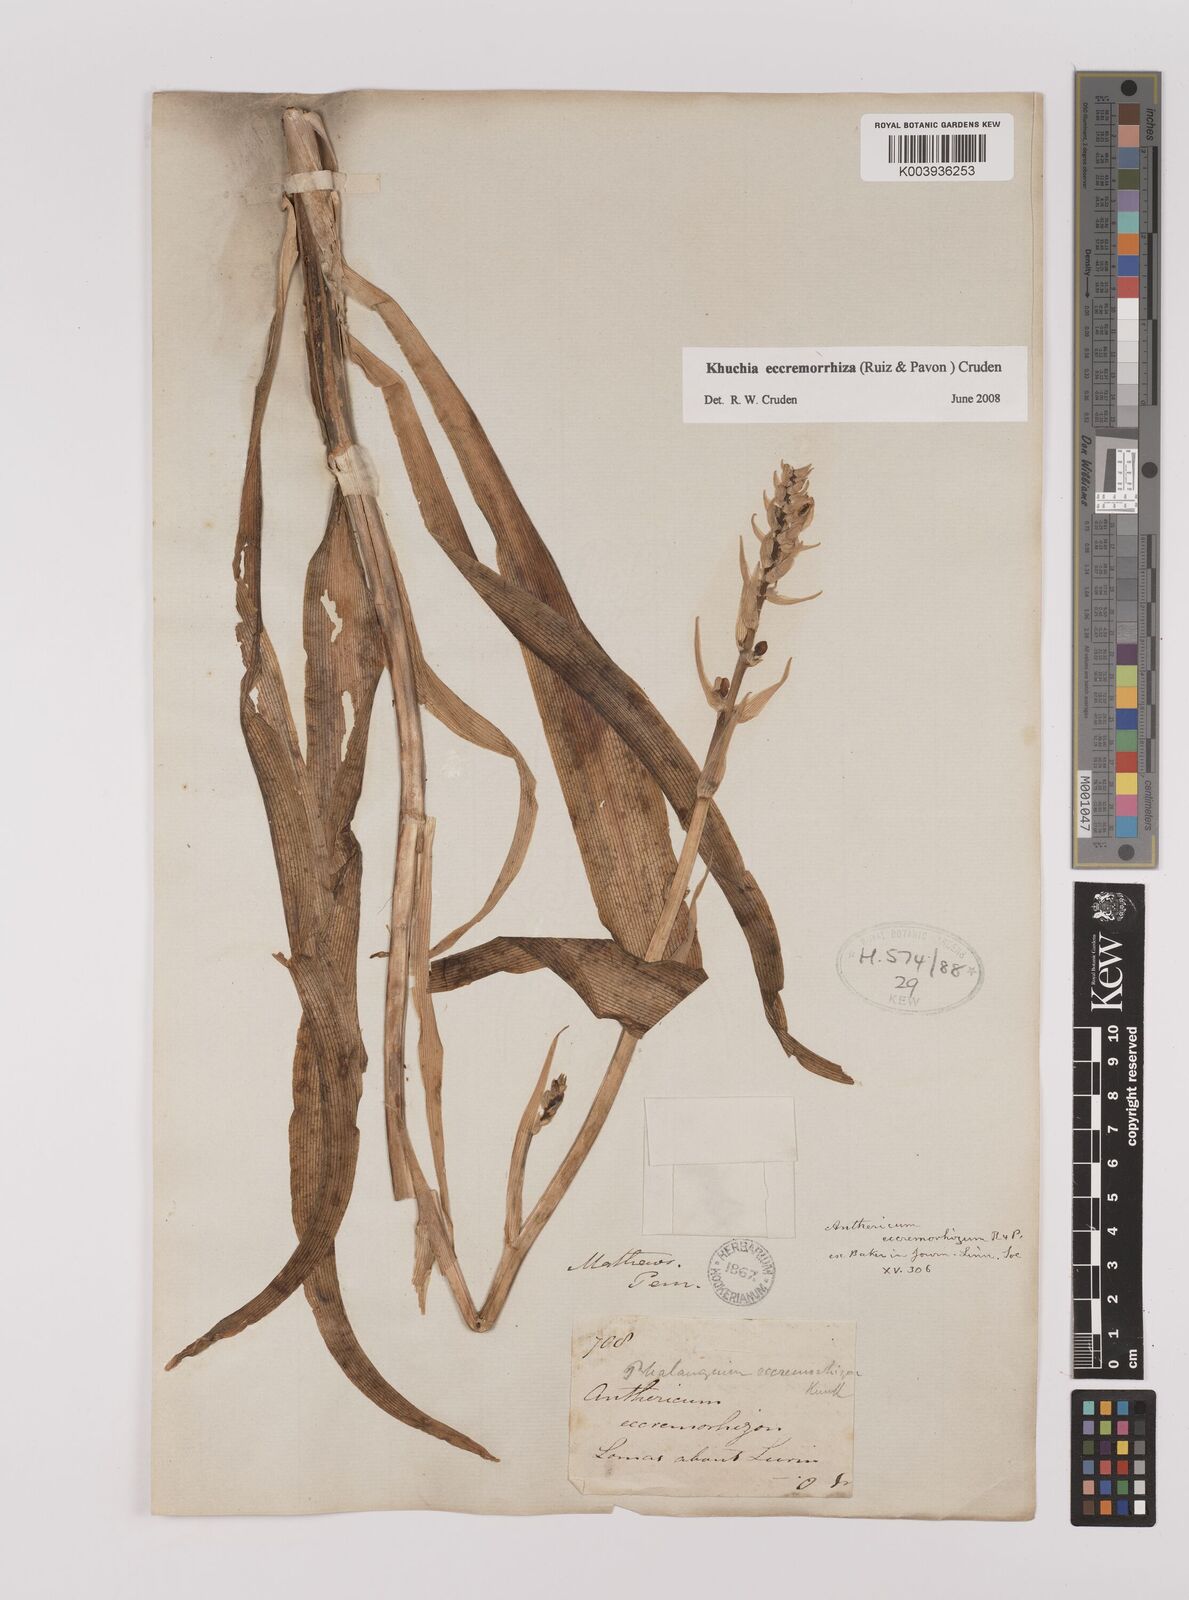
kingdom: Plantae
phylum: Tracheophyta
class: Liliopsida
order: Asparagales
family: Asparagaceae
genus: Echeandia
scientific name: Echeandia
